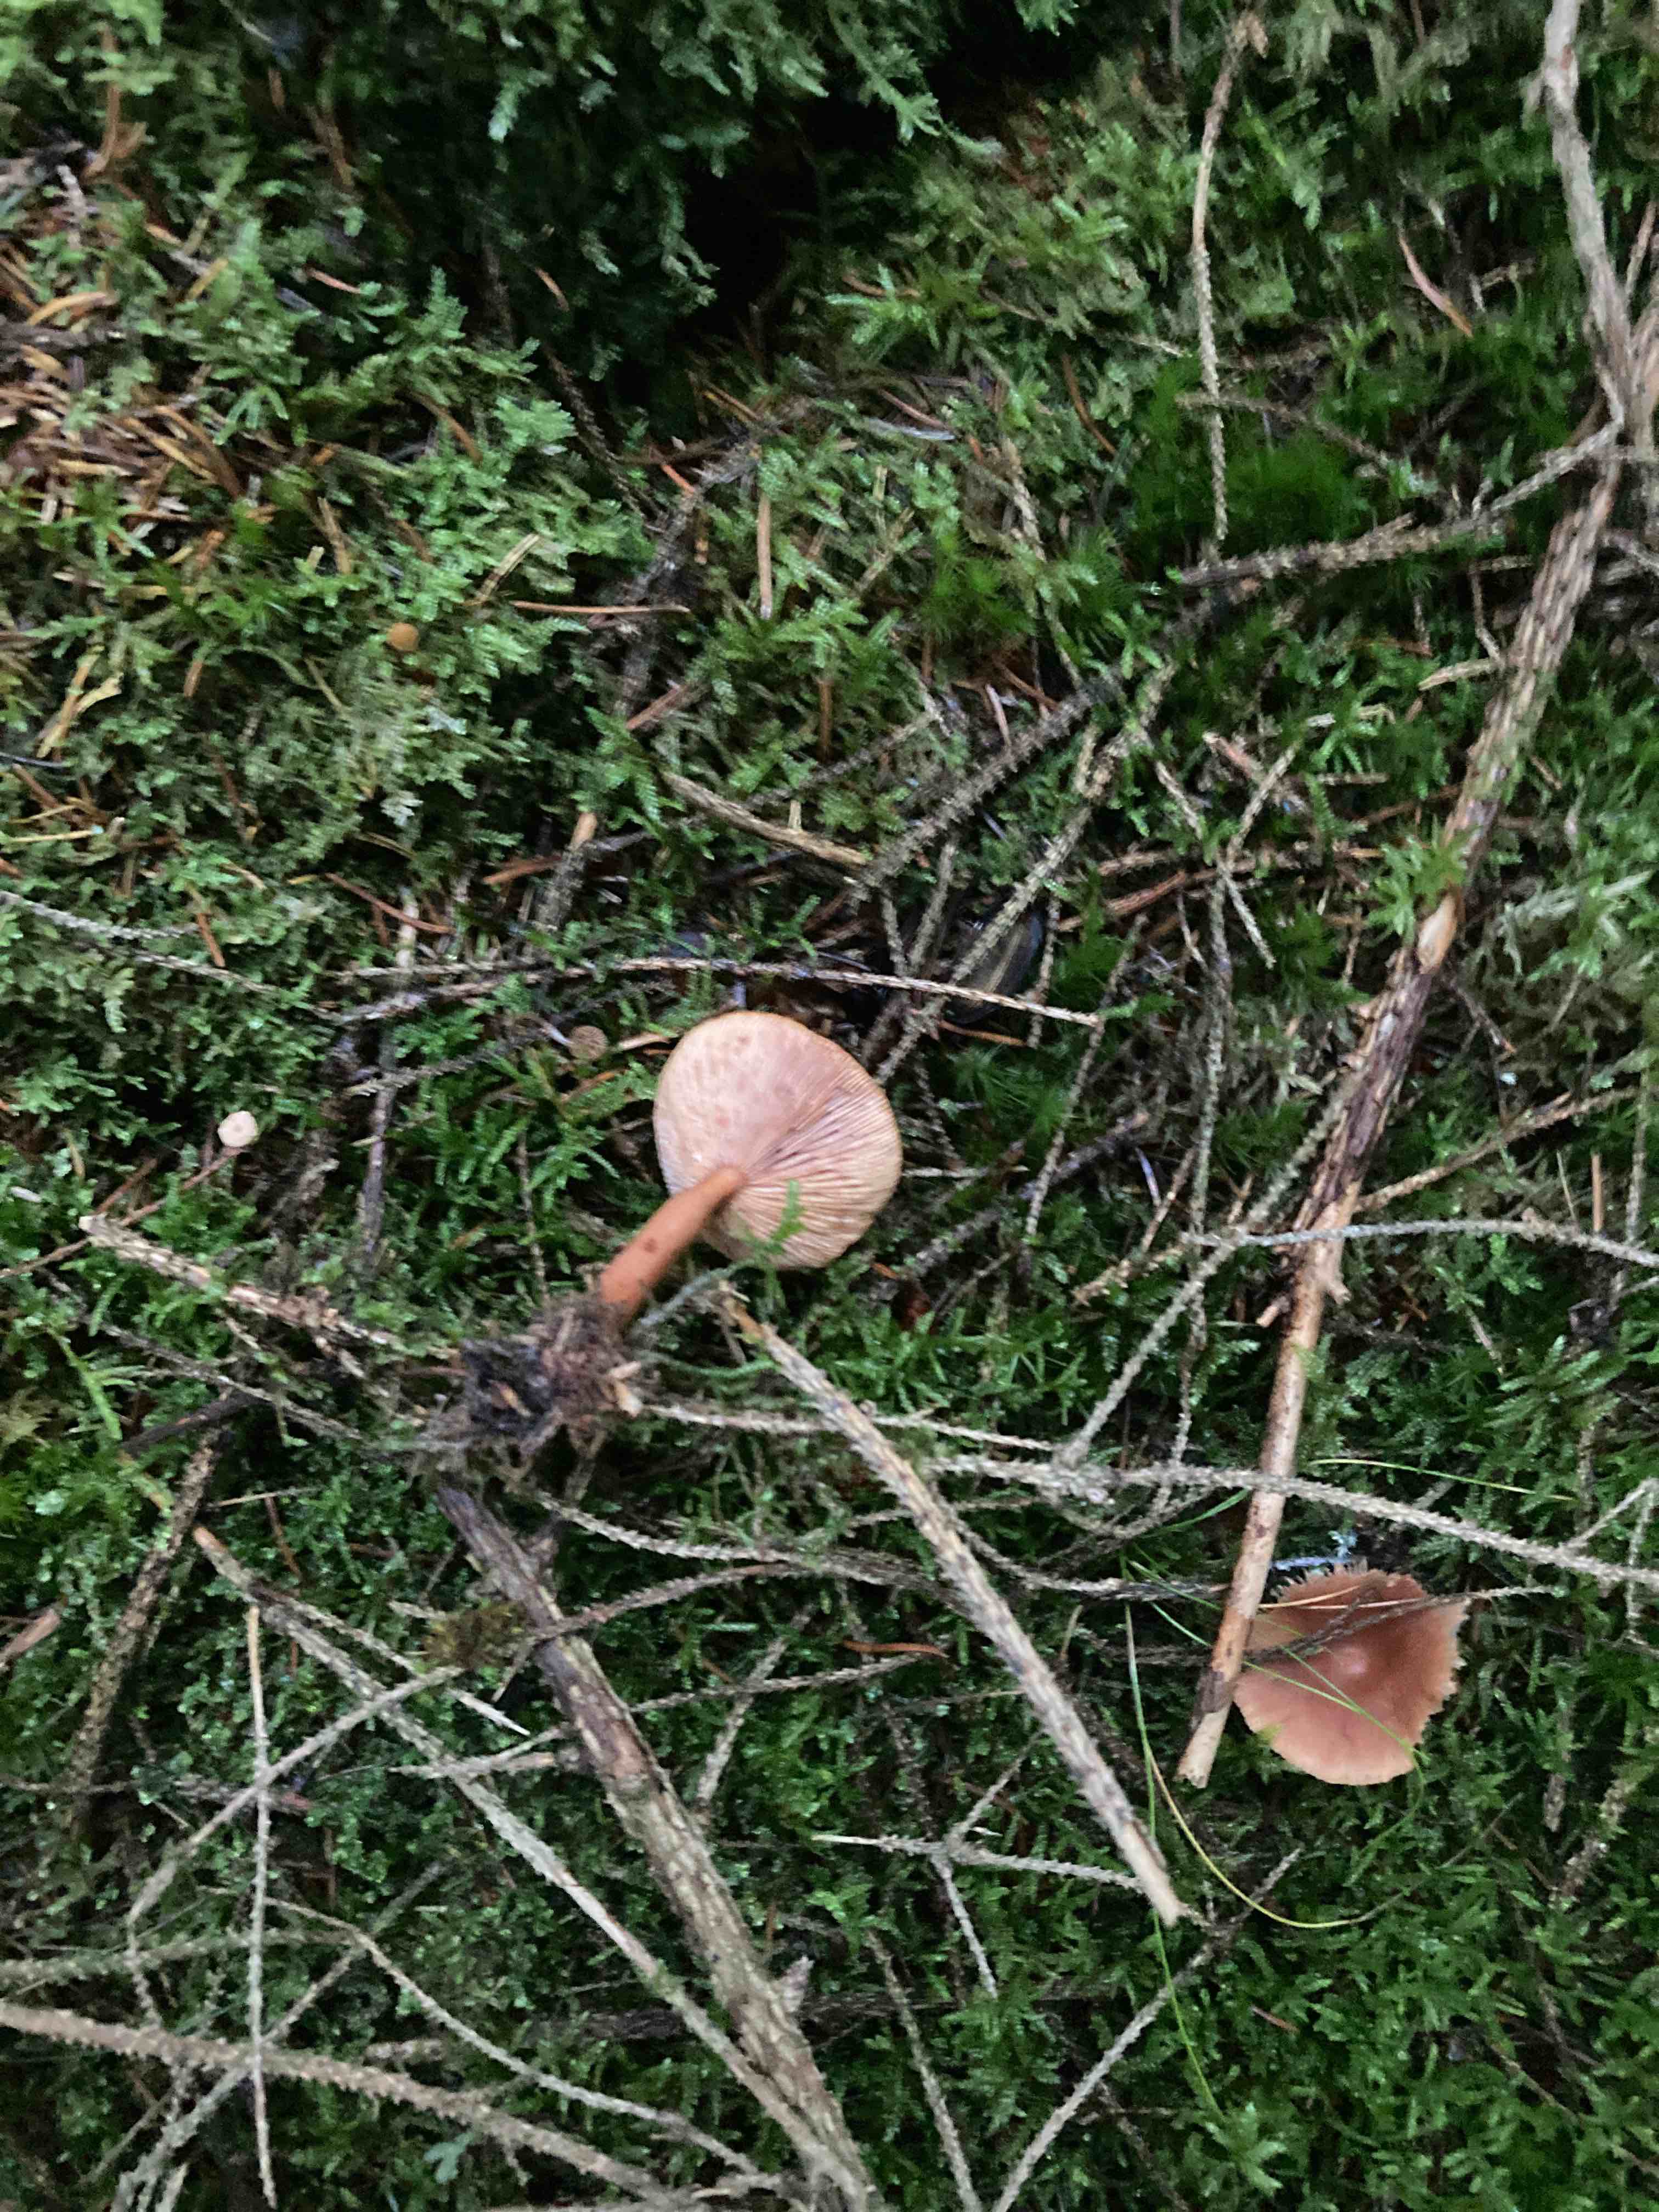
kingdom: Fungi
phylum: Basidiomycota
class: Agaricomycetes
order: Russulales
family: Russulaceae
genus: Lactarius
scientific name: Lactarius tabidus
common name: rynket mælkehat
